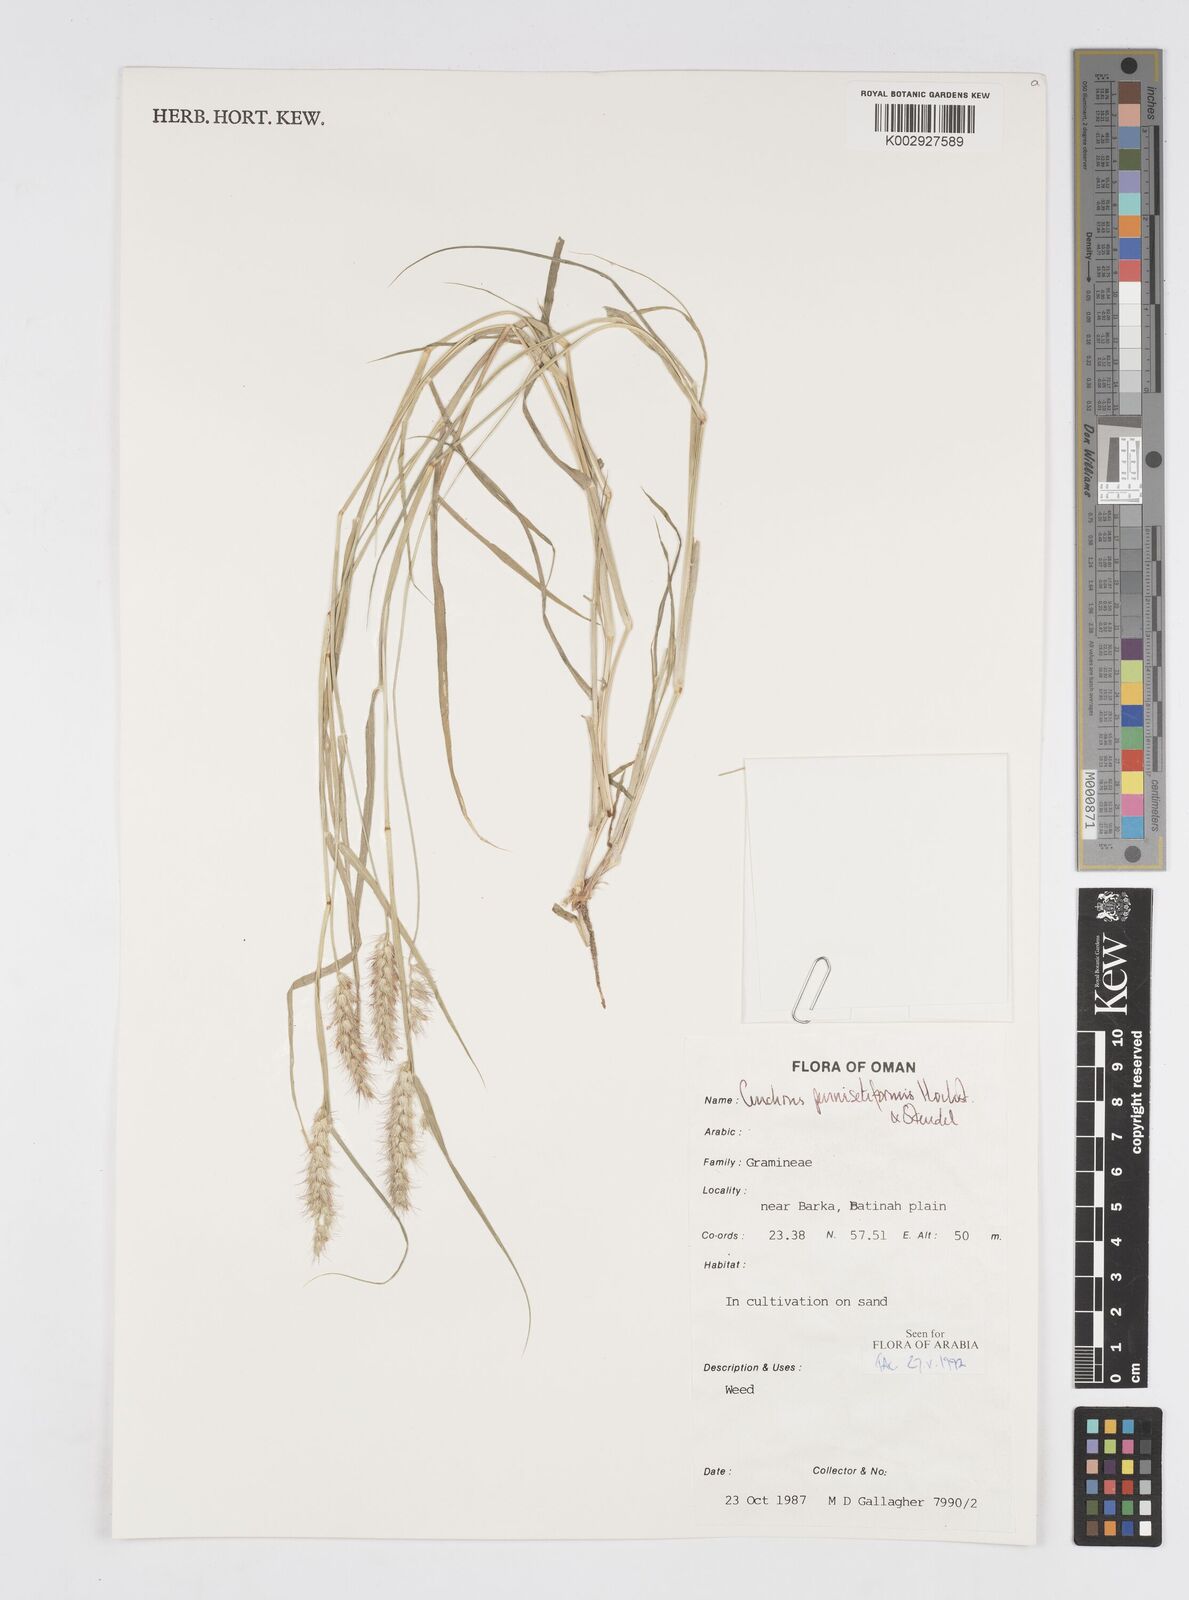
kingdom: Plantae
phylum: Tracheophyta
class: Liliopsida
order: Poales
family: Poaceae
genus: Cenchrus
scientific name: Cenchrus pennisetiformis
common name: Cloncurry
